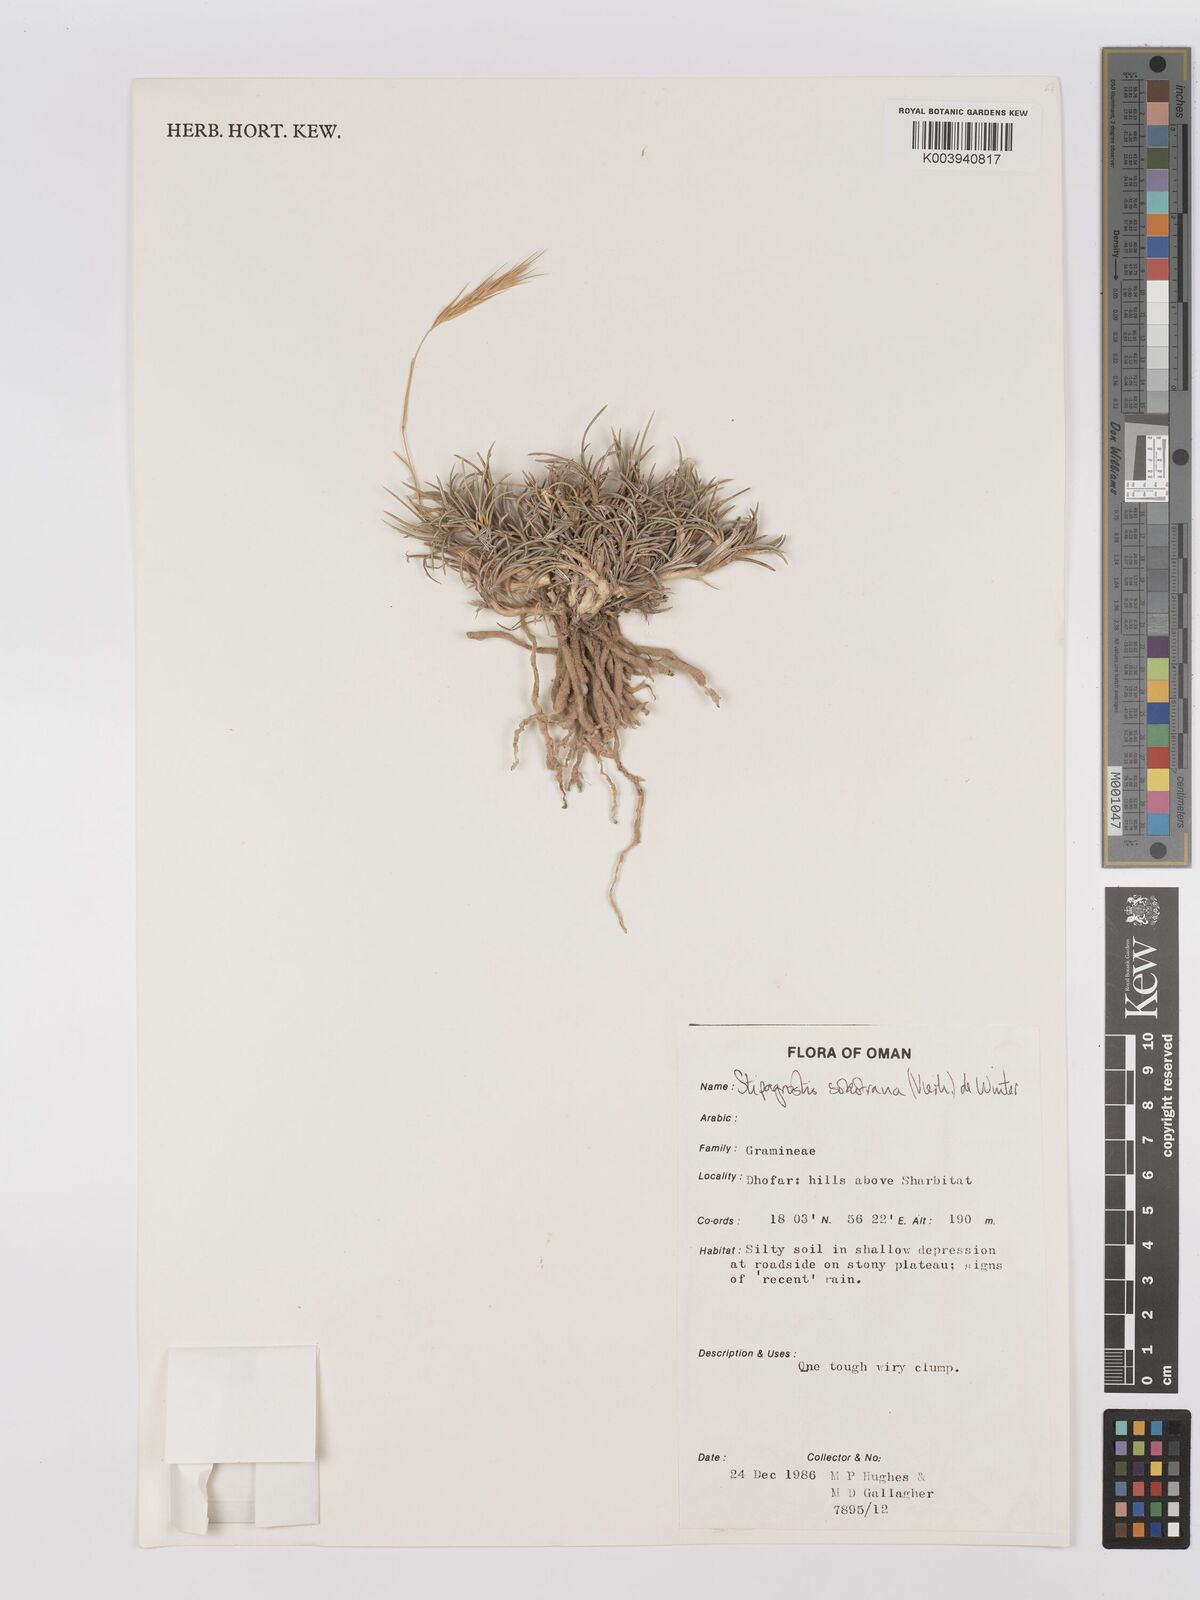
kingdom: Plantae
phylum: Tracheophyta
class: Liliopsida
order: Poales
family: Poaceae
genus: Stipagrostis
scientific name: Stipagrostis sokotrana
